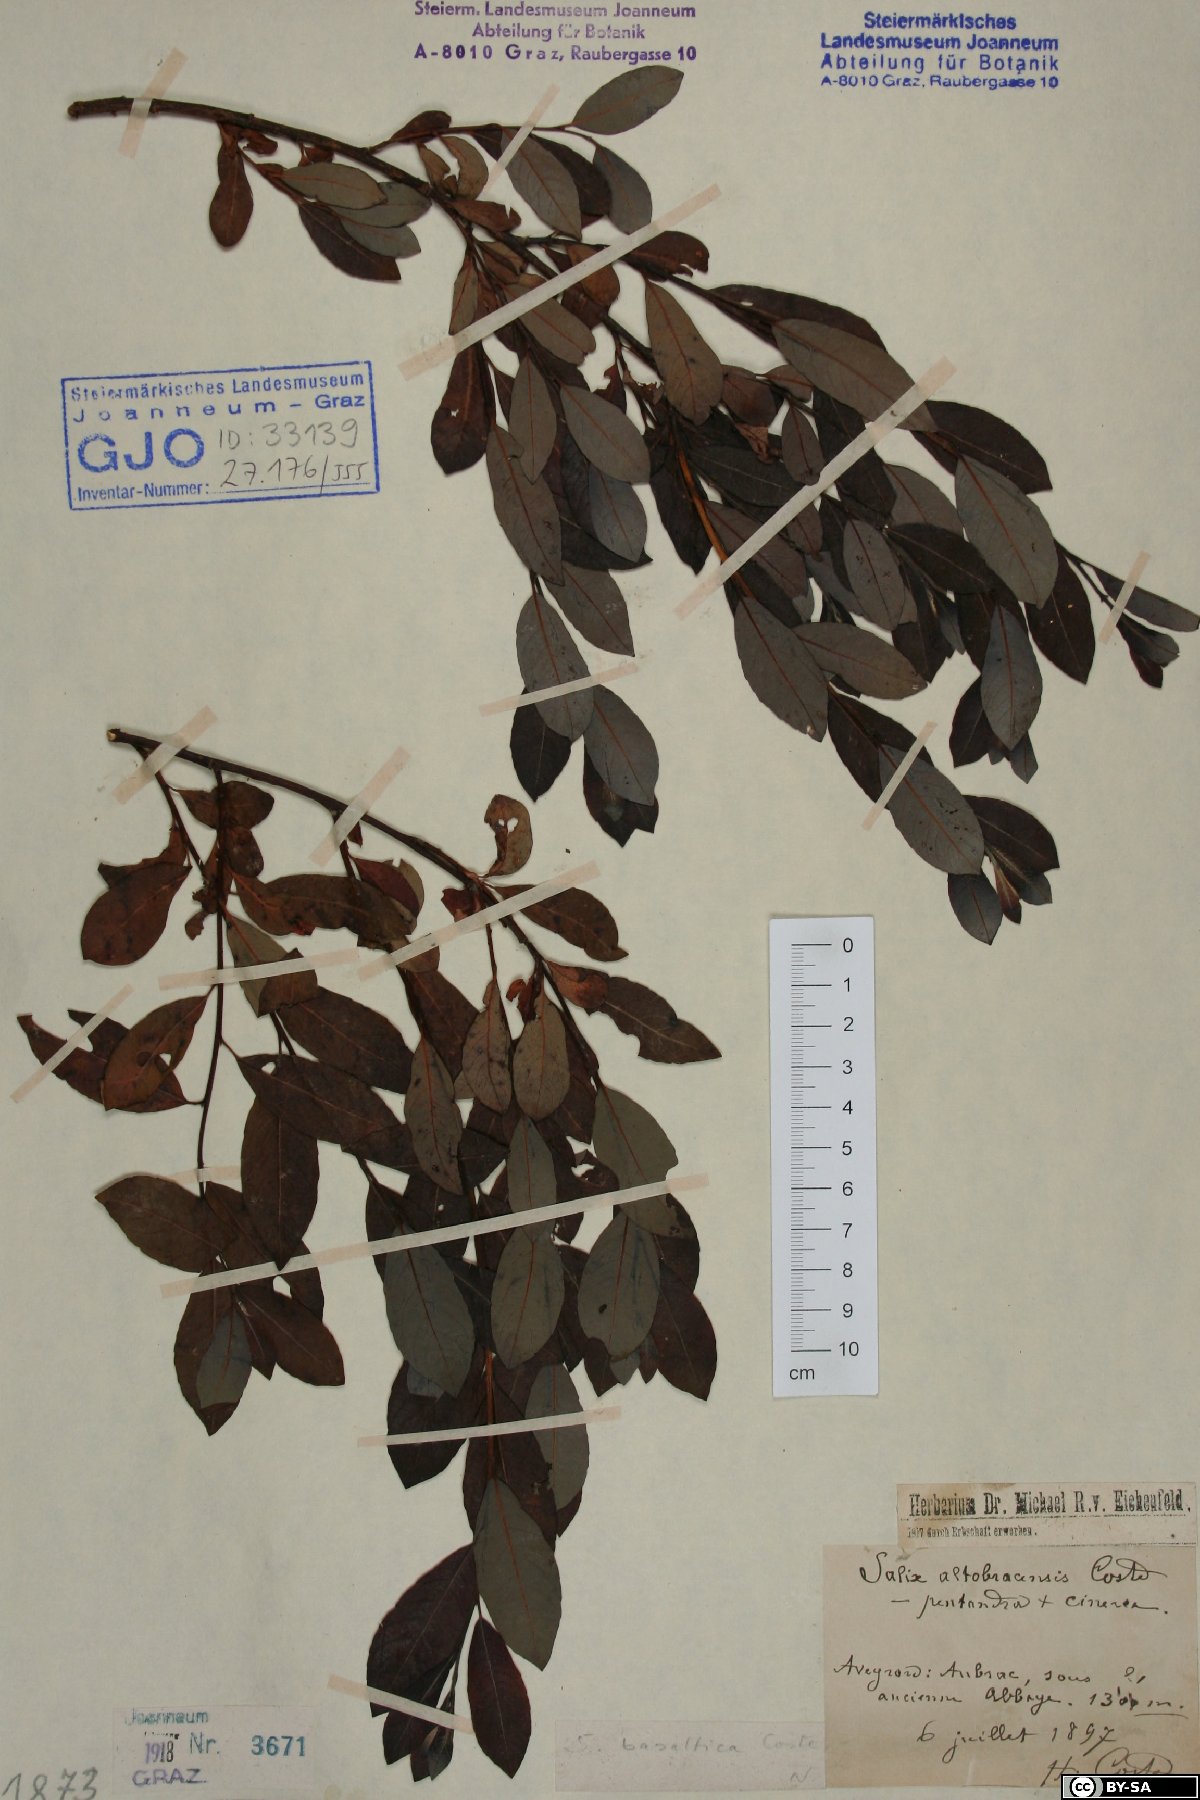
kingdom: Plantae
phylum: Tracheophyta
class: Magnoliopsida
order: Malpighiales
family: Salicaceae
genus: Salix
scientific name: Salix basaltica
